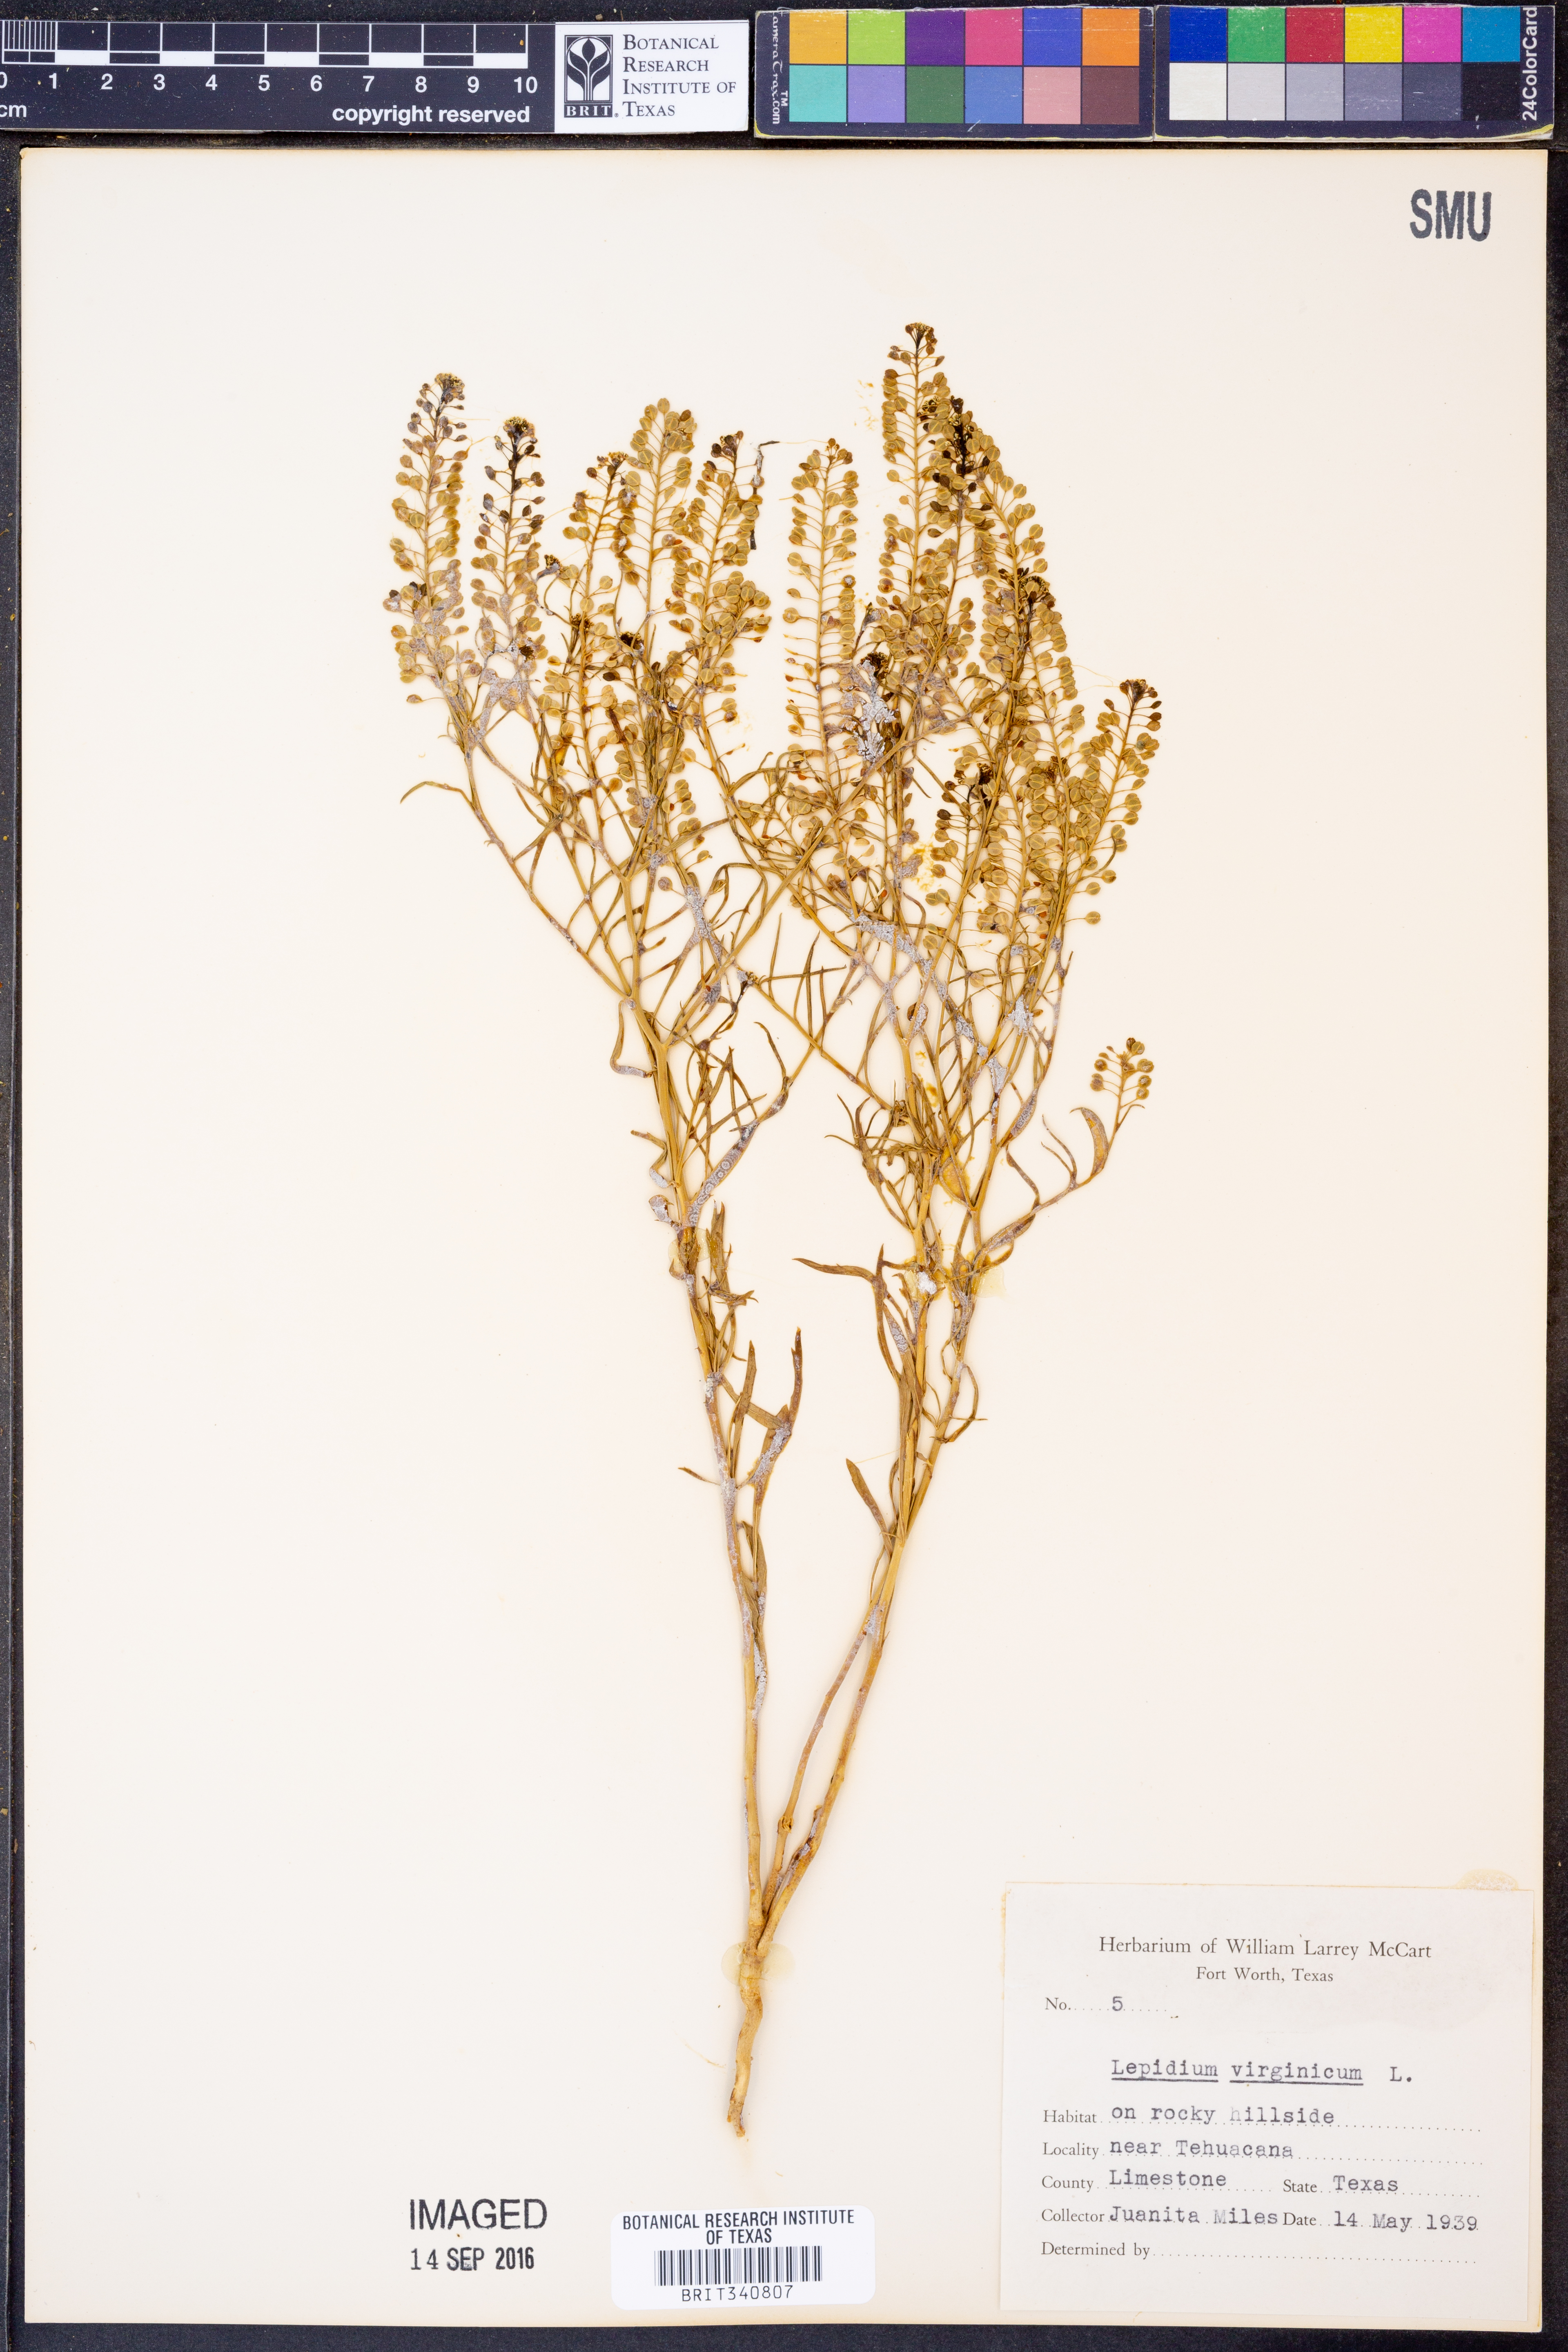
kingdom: Plantae
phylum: Tracheophyta
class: Magnoliopsida
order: Brassicales
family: Brassicaceae
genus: Lepidium
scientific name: Lepidium virginicum
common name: Least pepperwort
